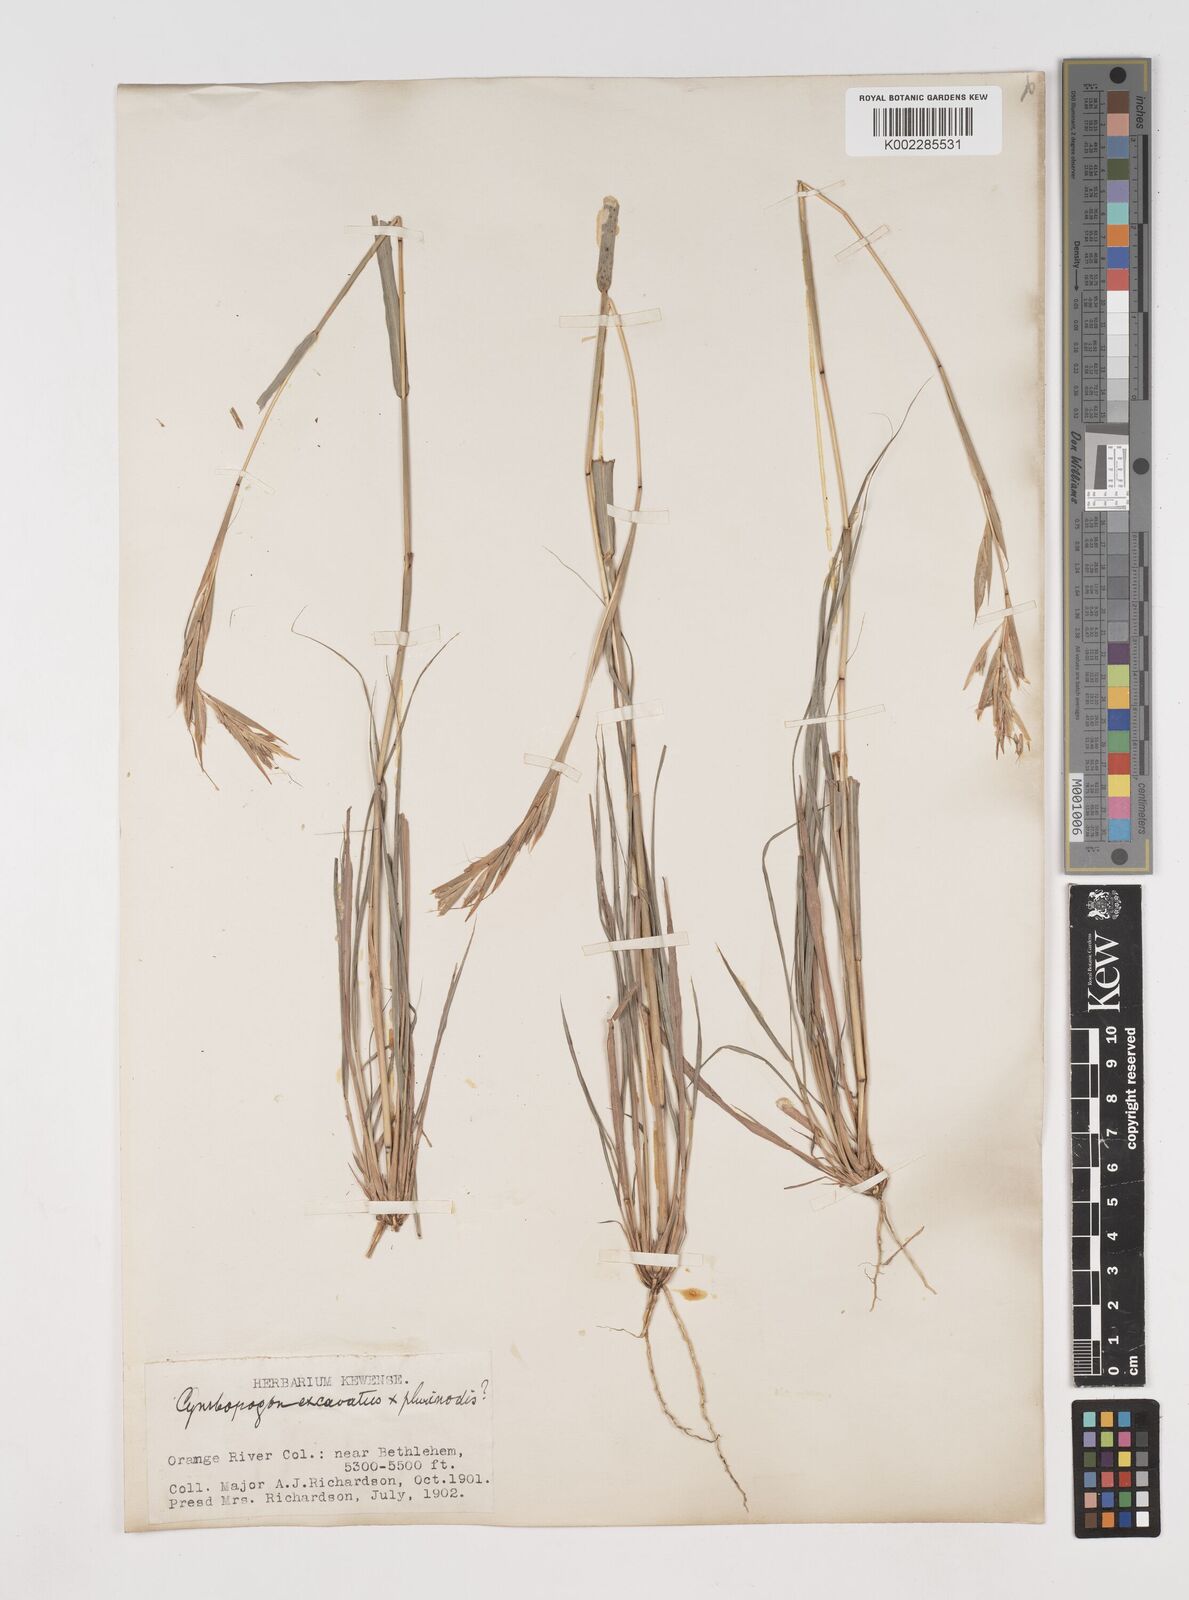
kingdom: Plantae
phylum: Tracheophyta
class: Liliopsida
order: Poales
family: Poaceae
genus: Cymbopogon
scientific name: Cymbopogon caesius
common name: Kachi grass
